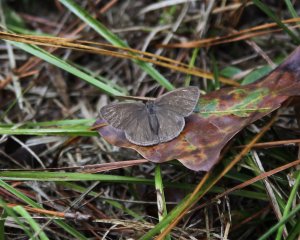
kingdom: Animalia
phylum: Arthropoda
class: Insecta
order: Lepidoptera
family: Nymphalidae
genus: Hermeuptychia
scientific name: Hermeuptychia hermes
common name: Carolina Satyr
